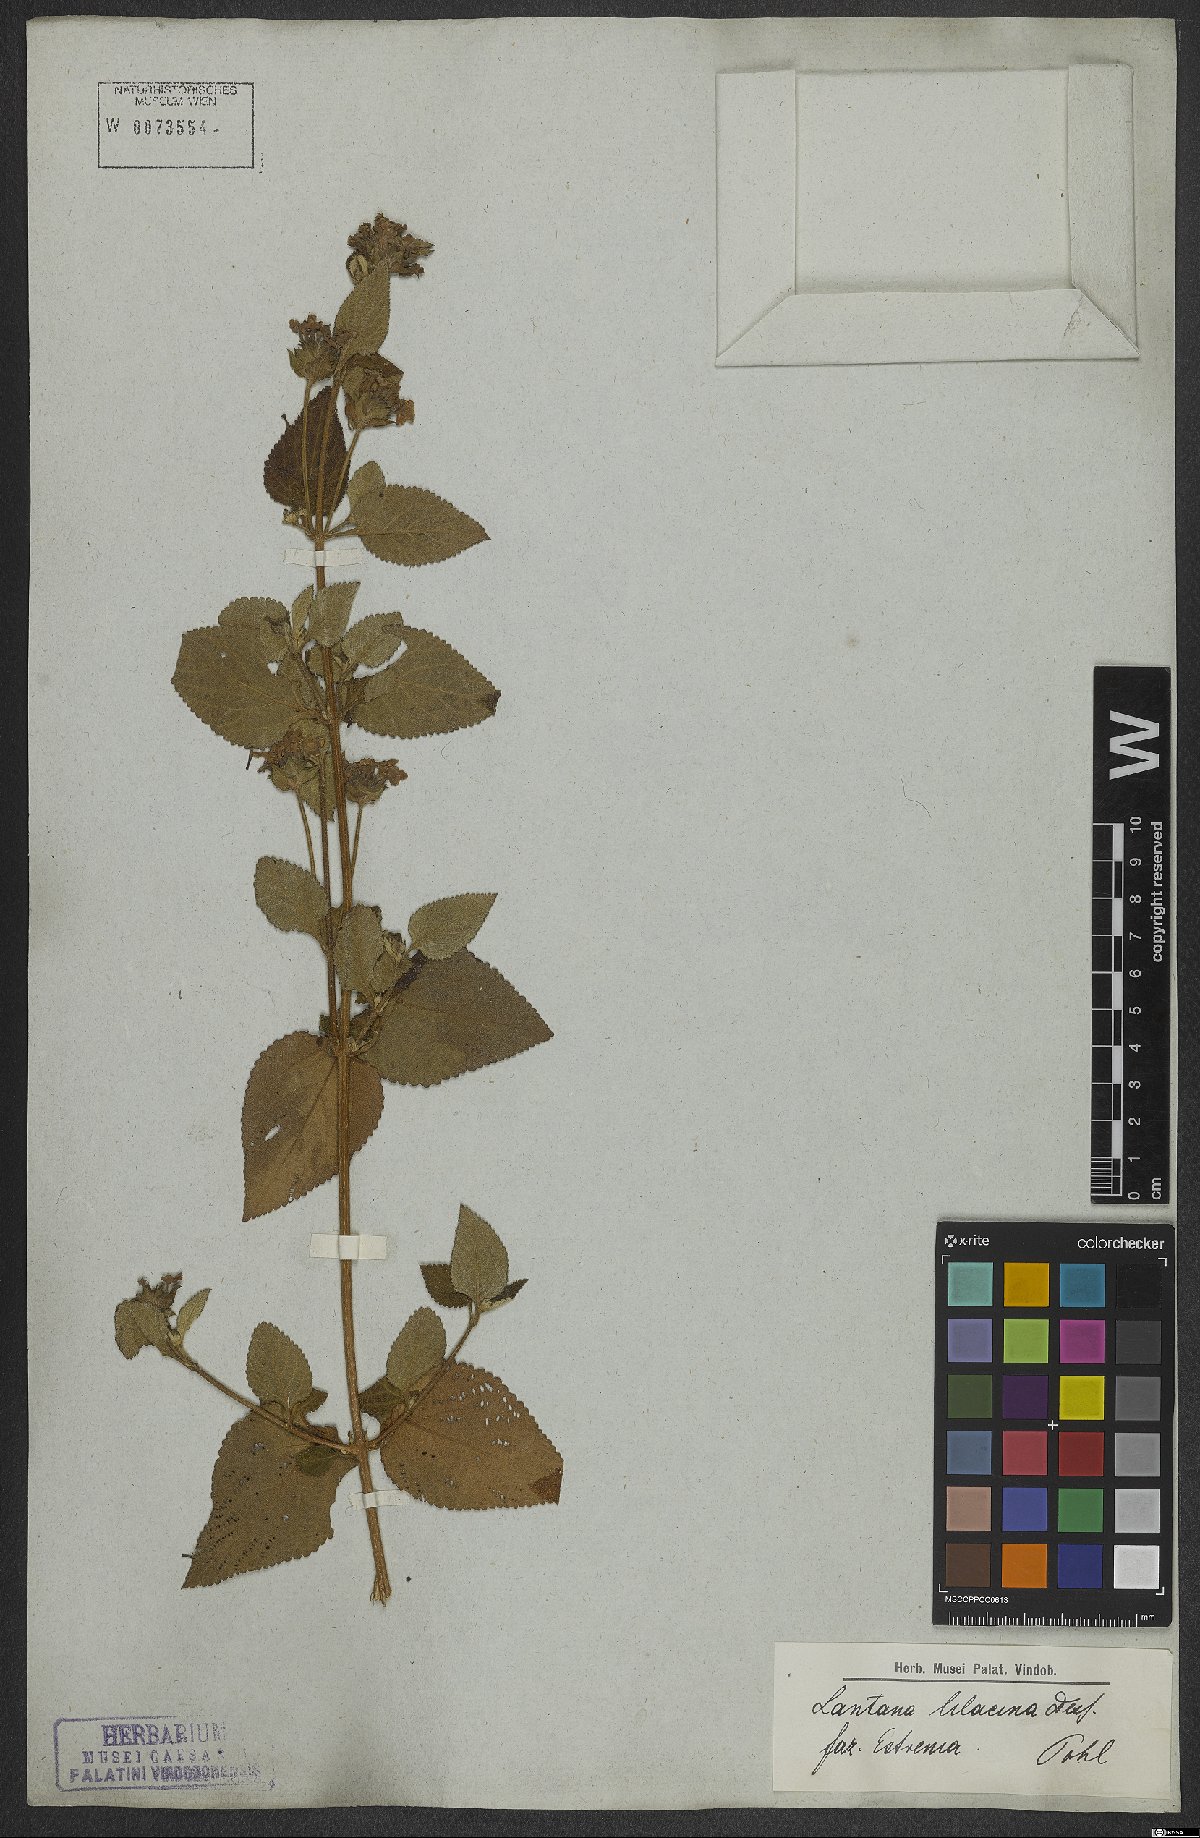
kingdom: Plantae
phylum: Tracheophyta
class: Magnoliopsida
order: Lamiales
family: Verbenaceae
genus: Lantana
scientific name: Lantana fucata
